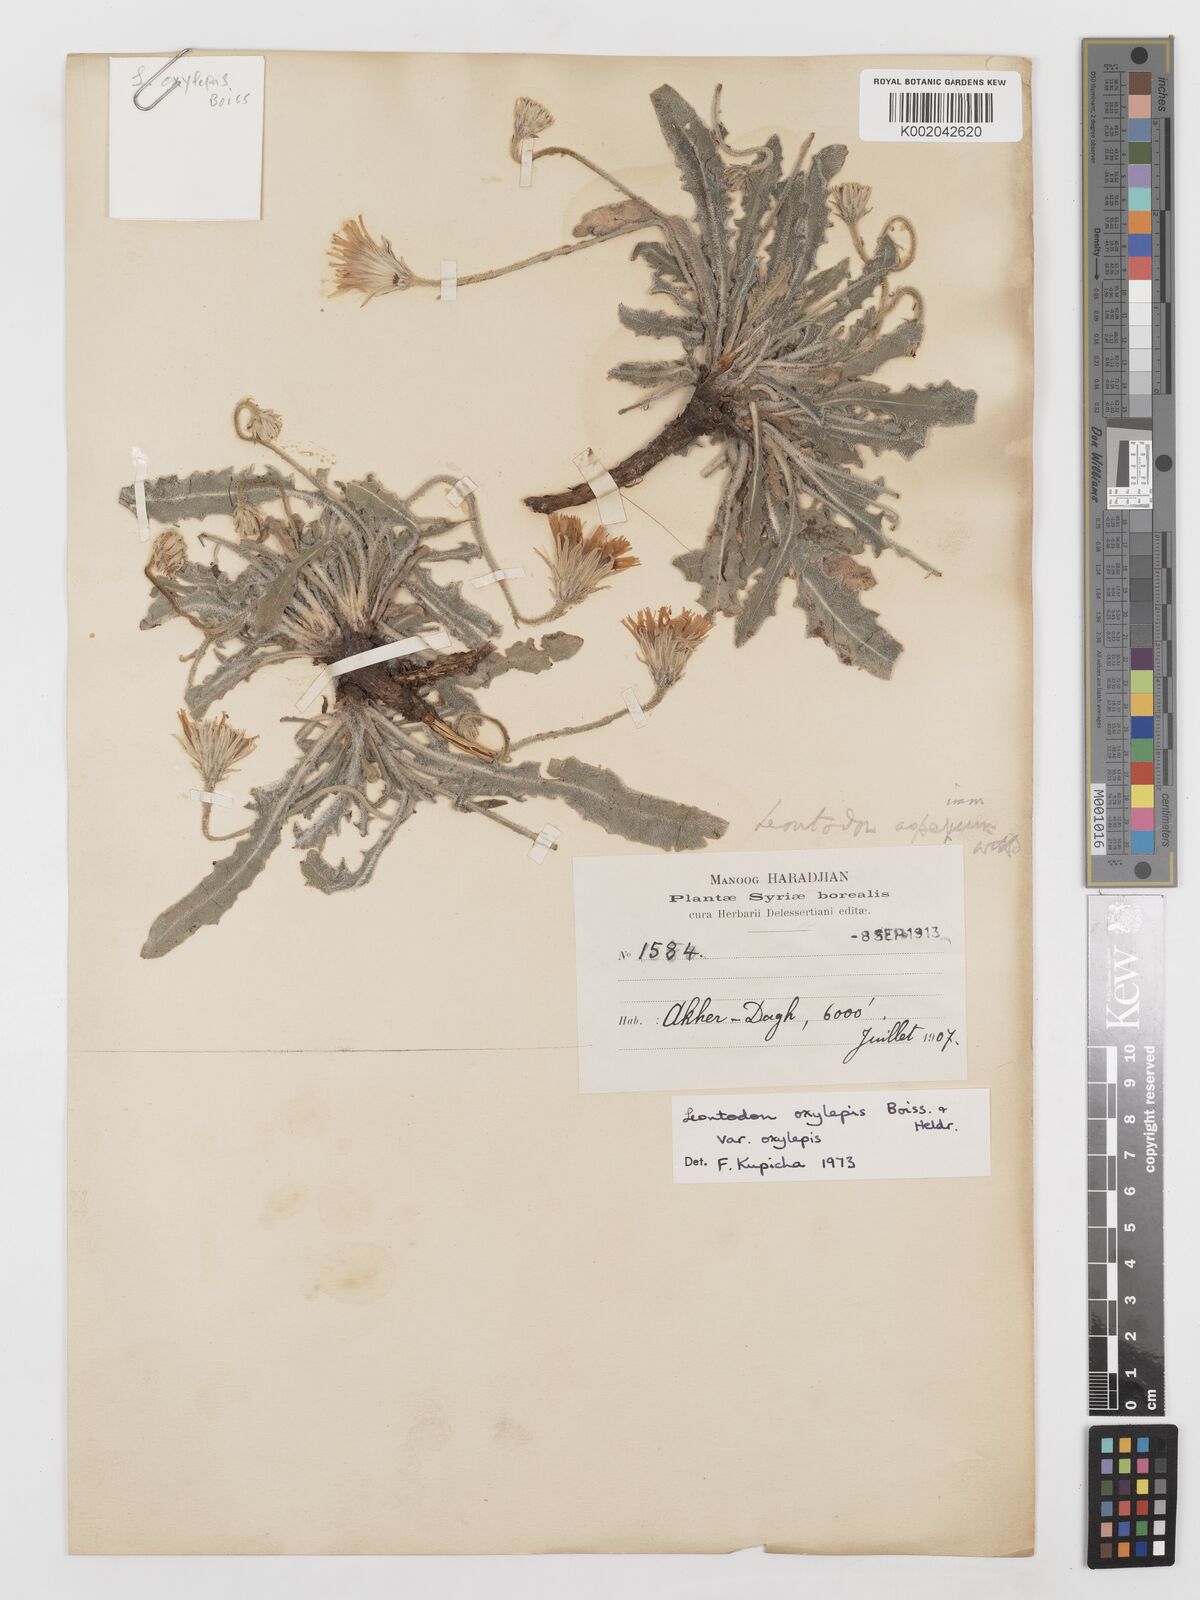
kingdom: Plantae
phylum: Tracheophyta
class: Magnoliopsida
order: Asterales
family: Asteraceae
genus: Leontodon
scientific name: Leontodon oxylepis
